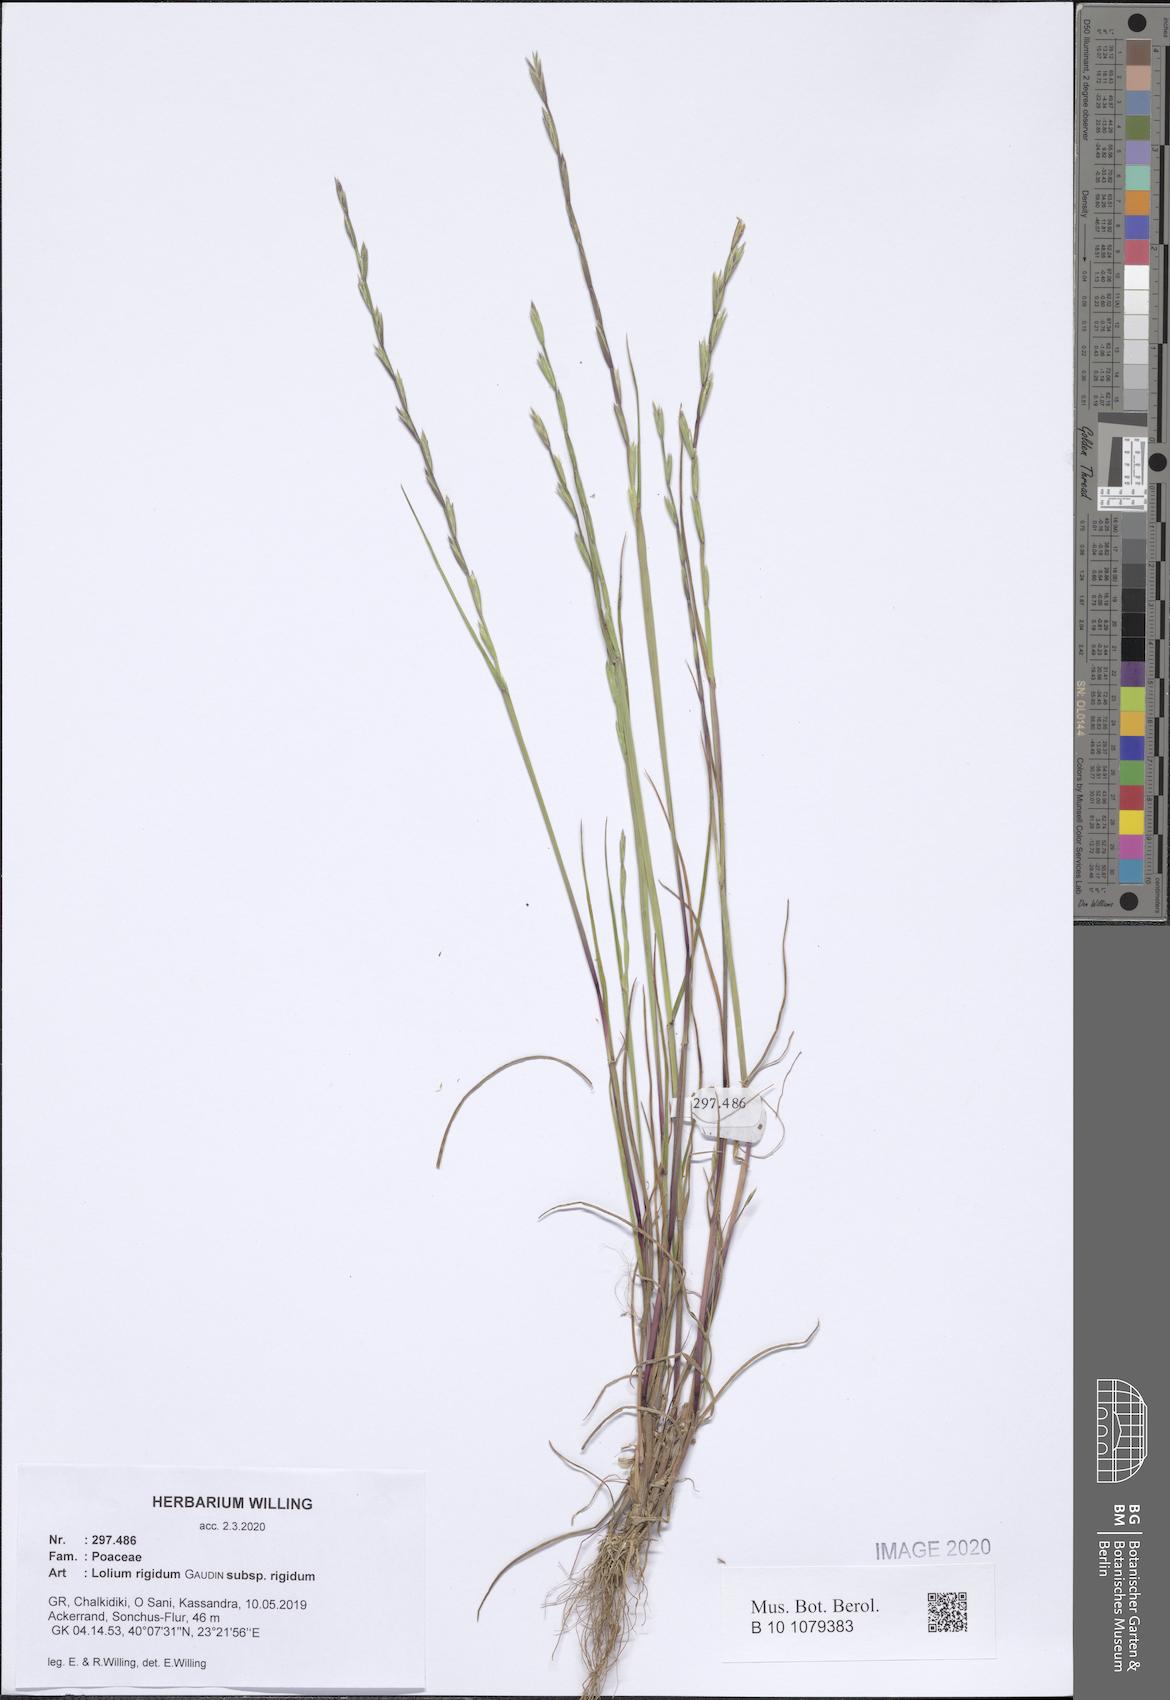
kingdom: Plantae
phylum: Tracheophyta
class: Liliopsida
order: Poales
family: Poaceae
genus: Lolium
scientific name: Lolium rigidum
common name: Wimmera ryegrass
